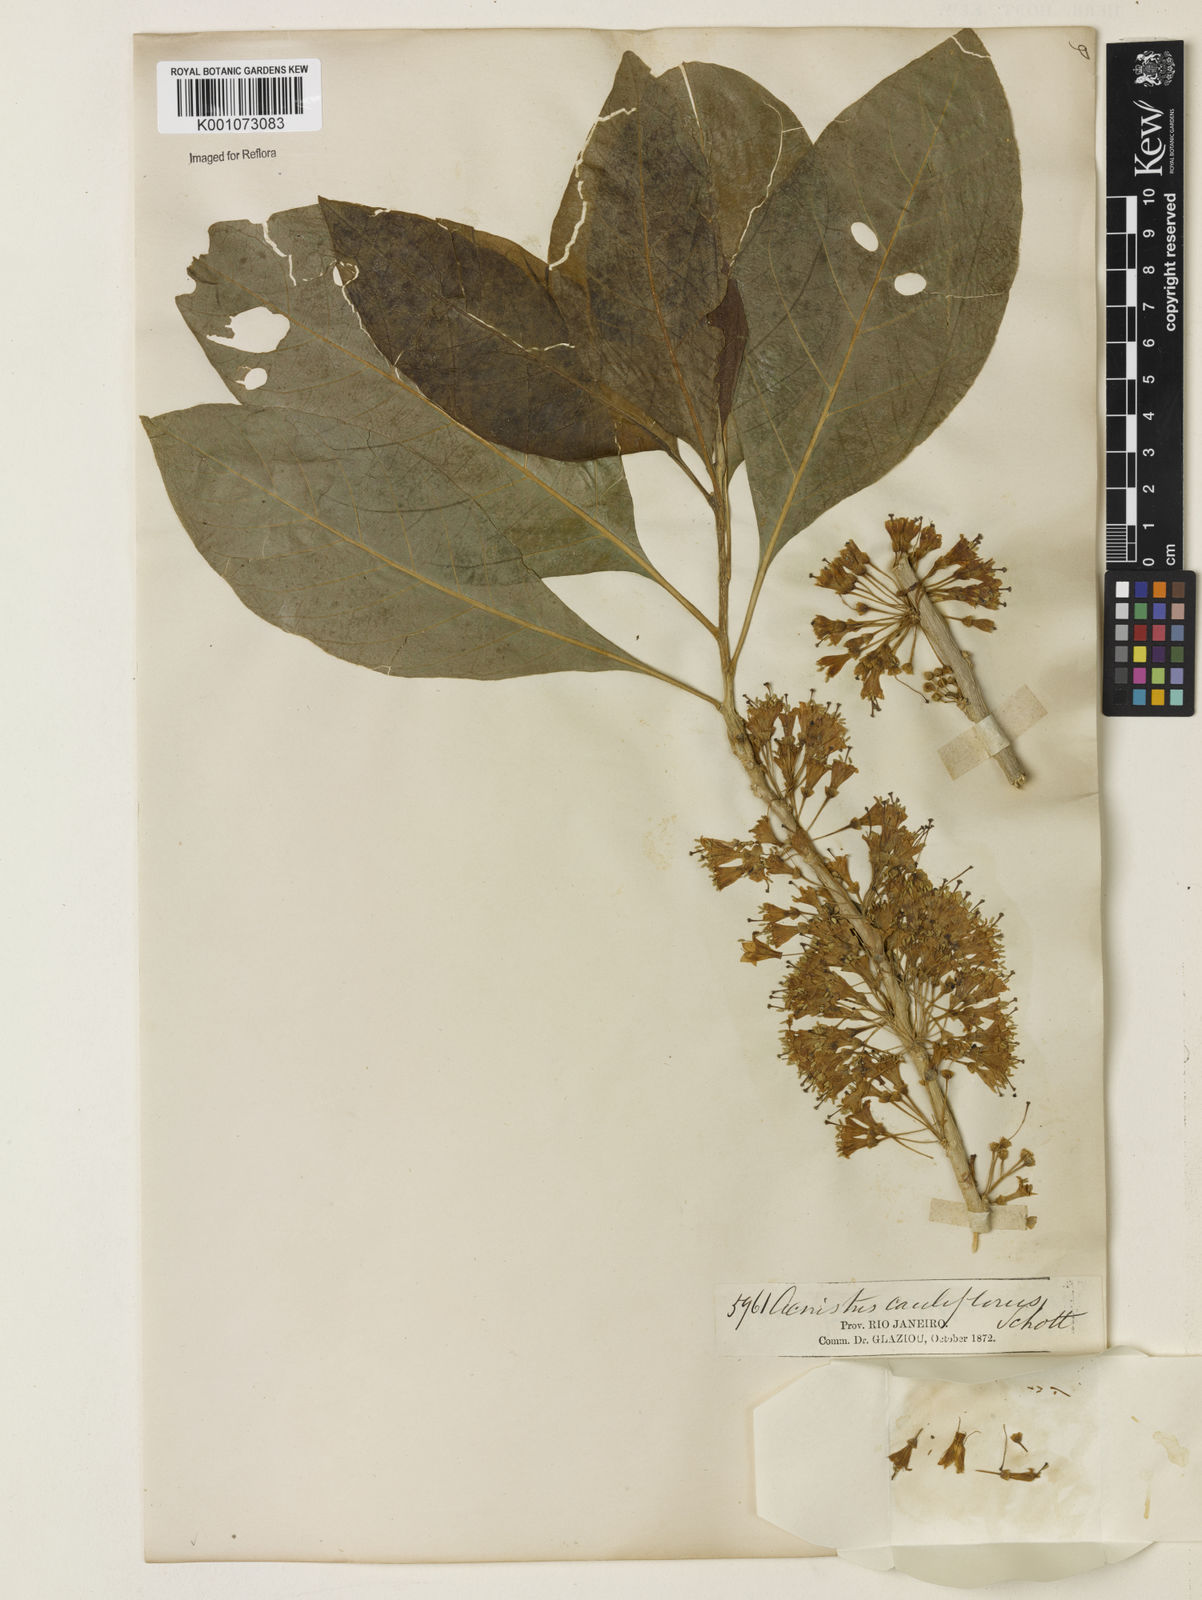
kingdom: Plantae
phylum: Tracheophyta
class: Magnoliopsida
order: Solanales
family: Solanaceae
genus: Iochroma
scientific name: Iochroma arborescens
